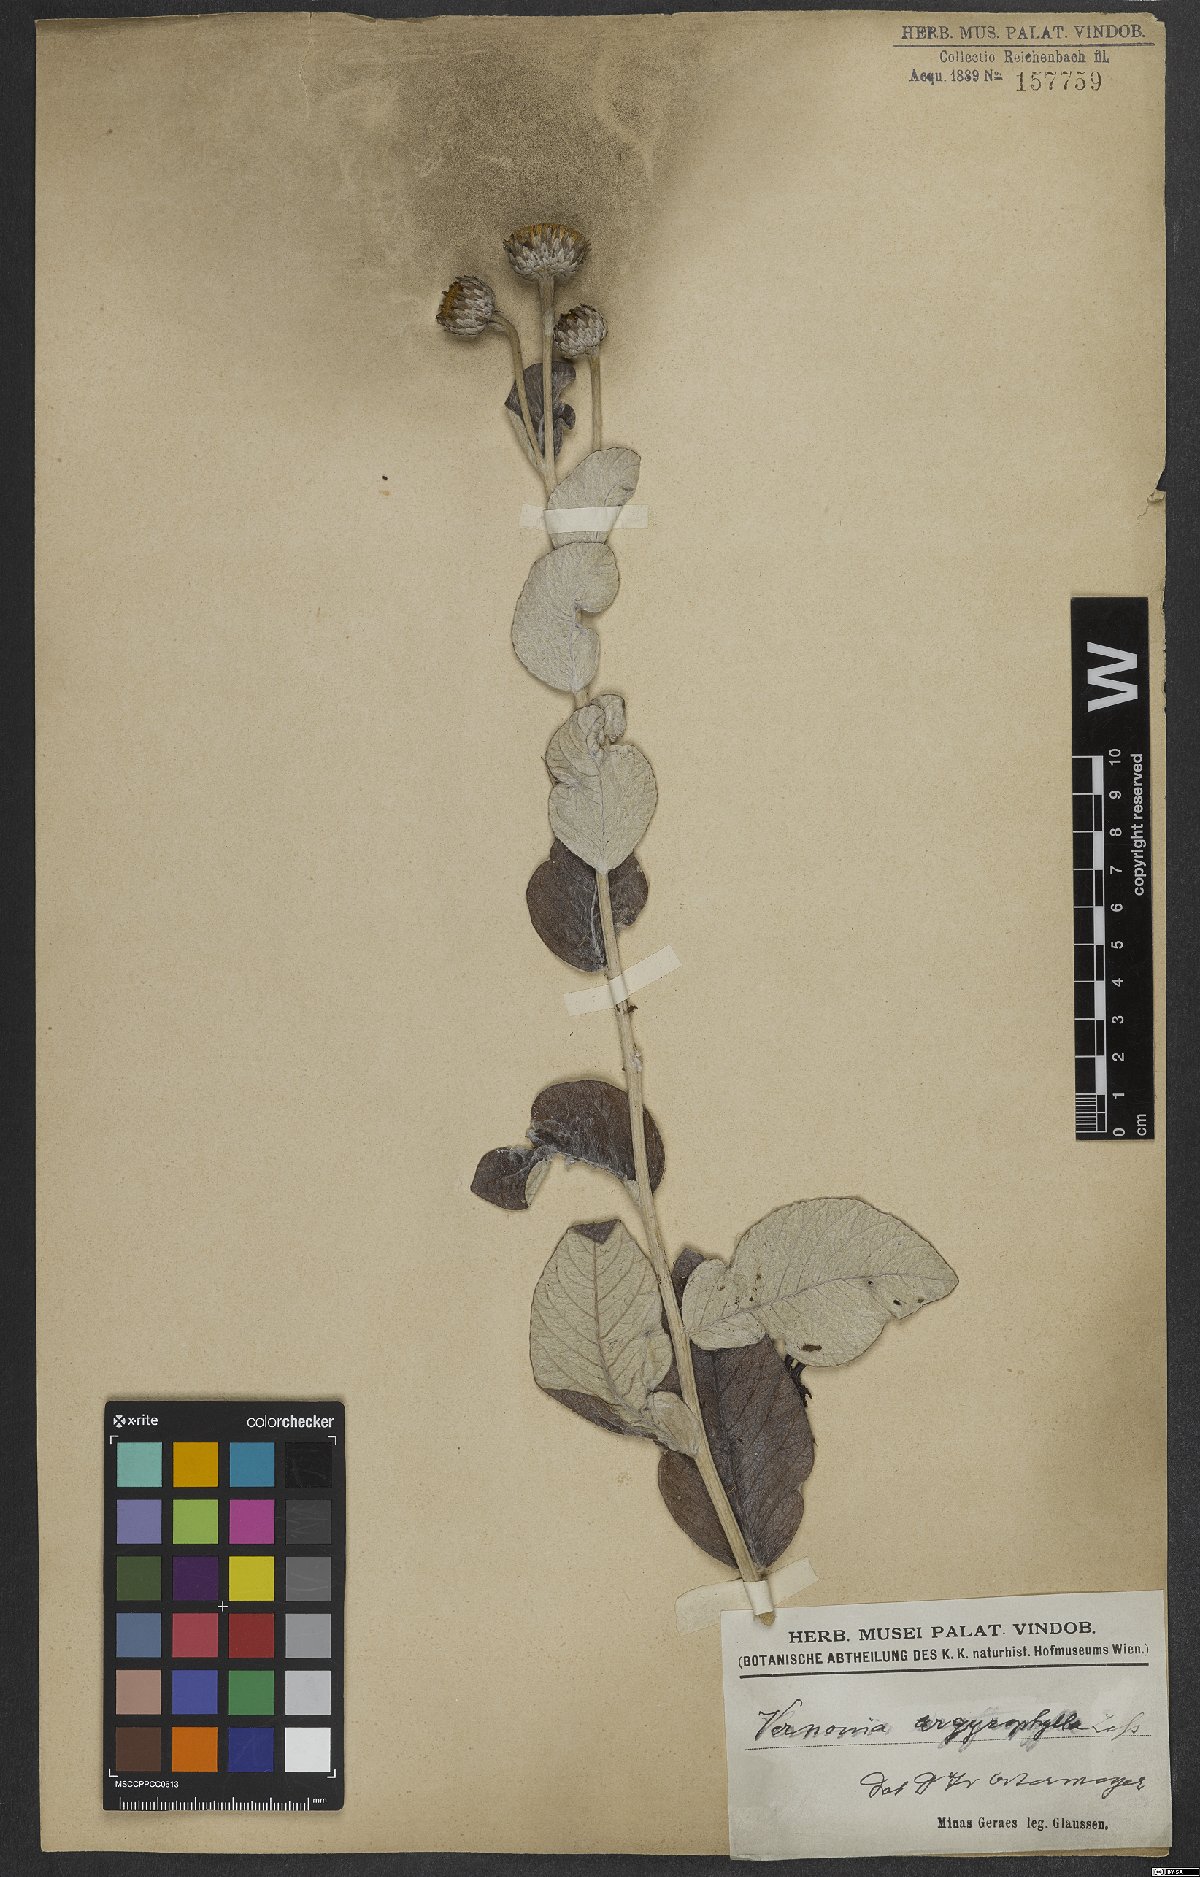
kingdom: Plantae
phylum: Tracheophyta
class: Magnoliopsida
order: Asterales
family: Asteraceae
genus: Lessingianthus
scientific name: Lessingianthus argyrophyllus
